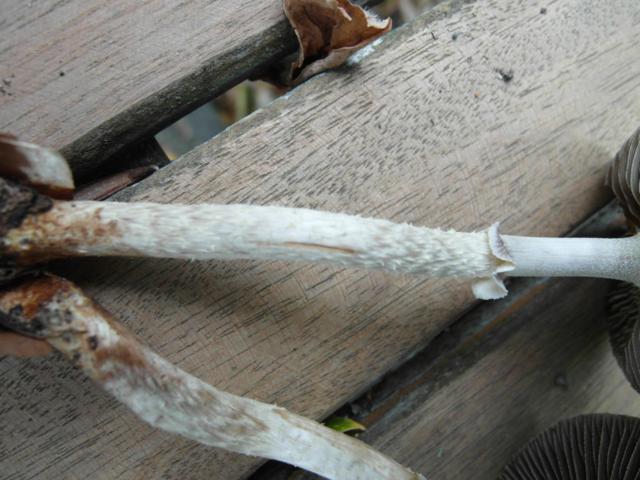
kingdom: Fungi
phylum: Basidiomycota
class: Agaricomycetes
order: Agaricales
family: Strophariaceae
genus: Leratiomyces
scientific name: Leratiomyces squamosus
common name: skællet bredblad
